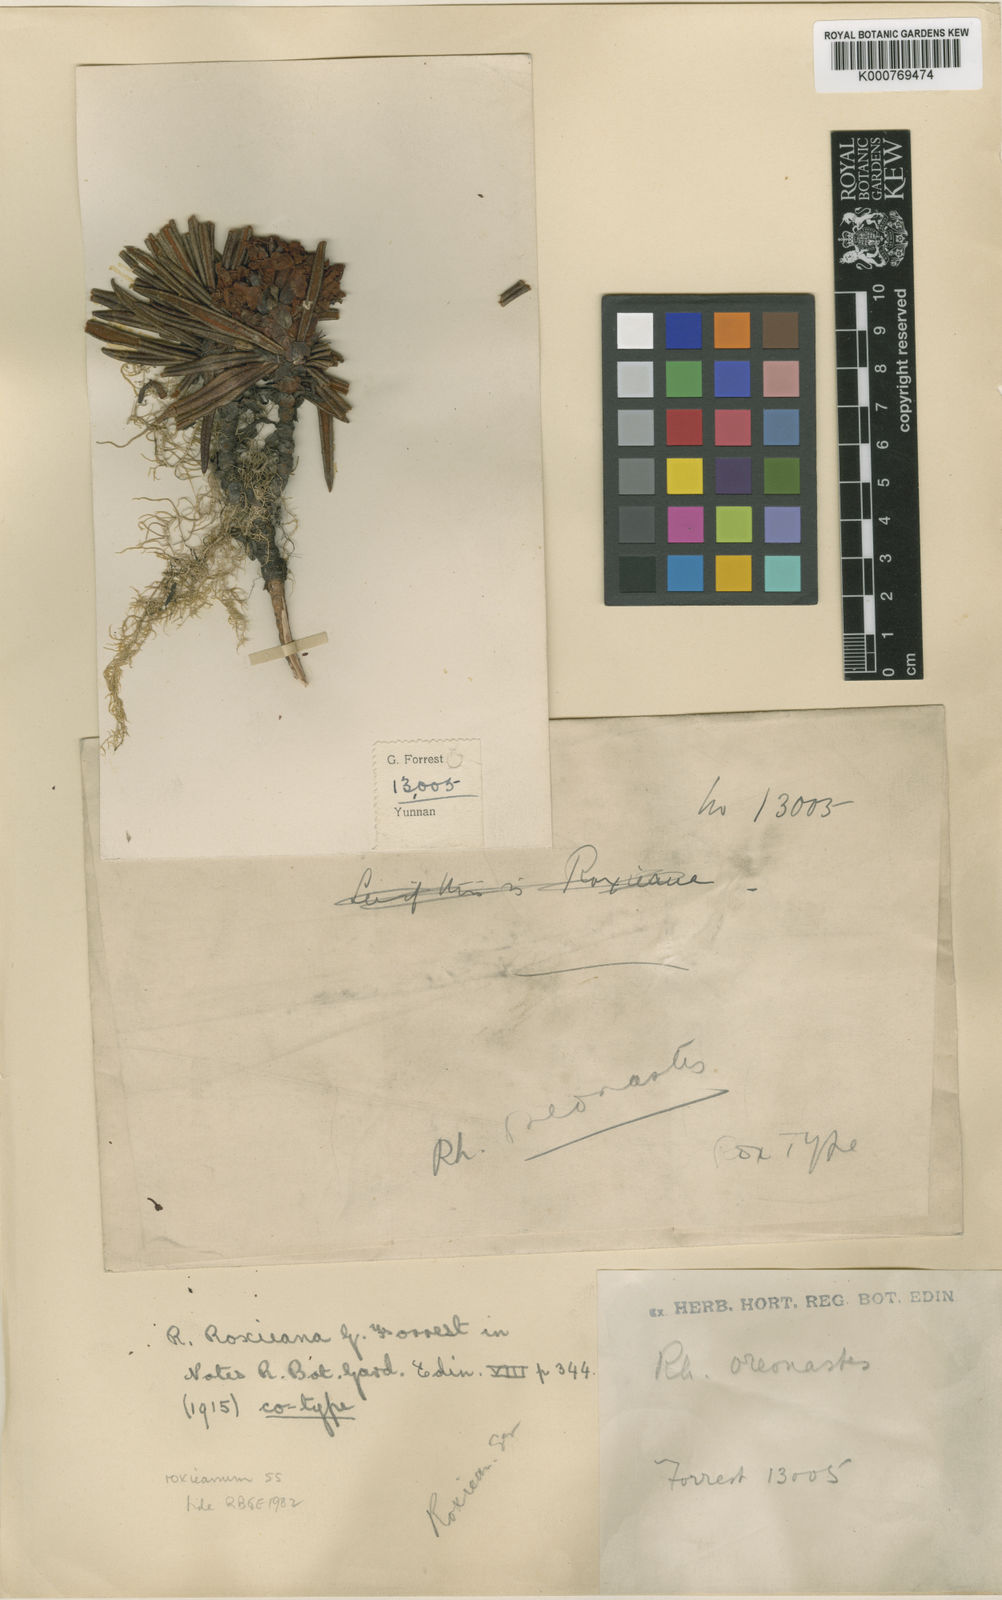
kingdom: Plantae
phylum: Tracheophyta
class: Magnoliopsida
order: Ericales
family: Ericaceae
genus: Rhododendron
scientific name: Rhododendron roxieanum
